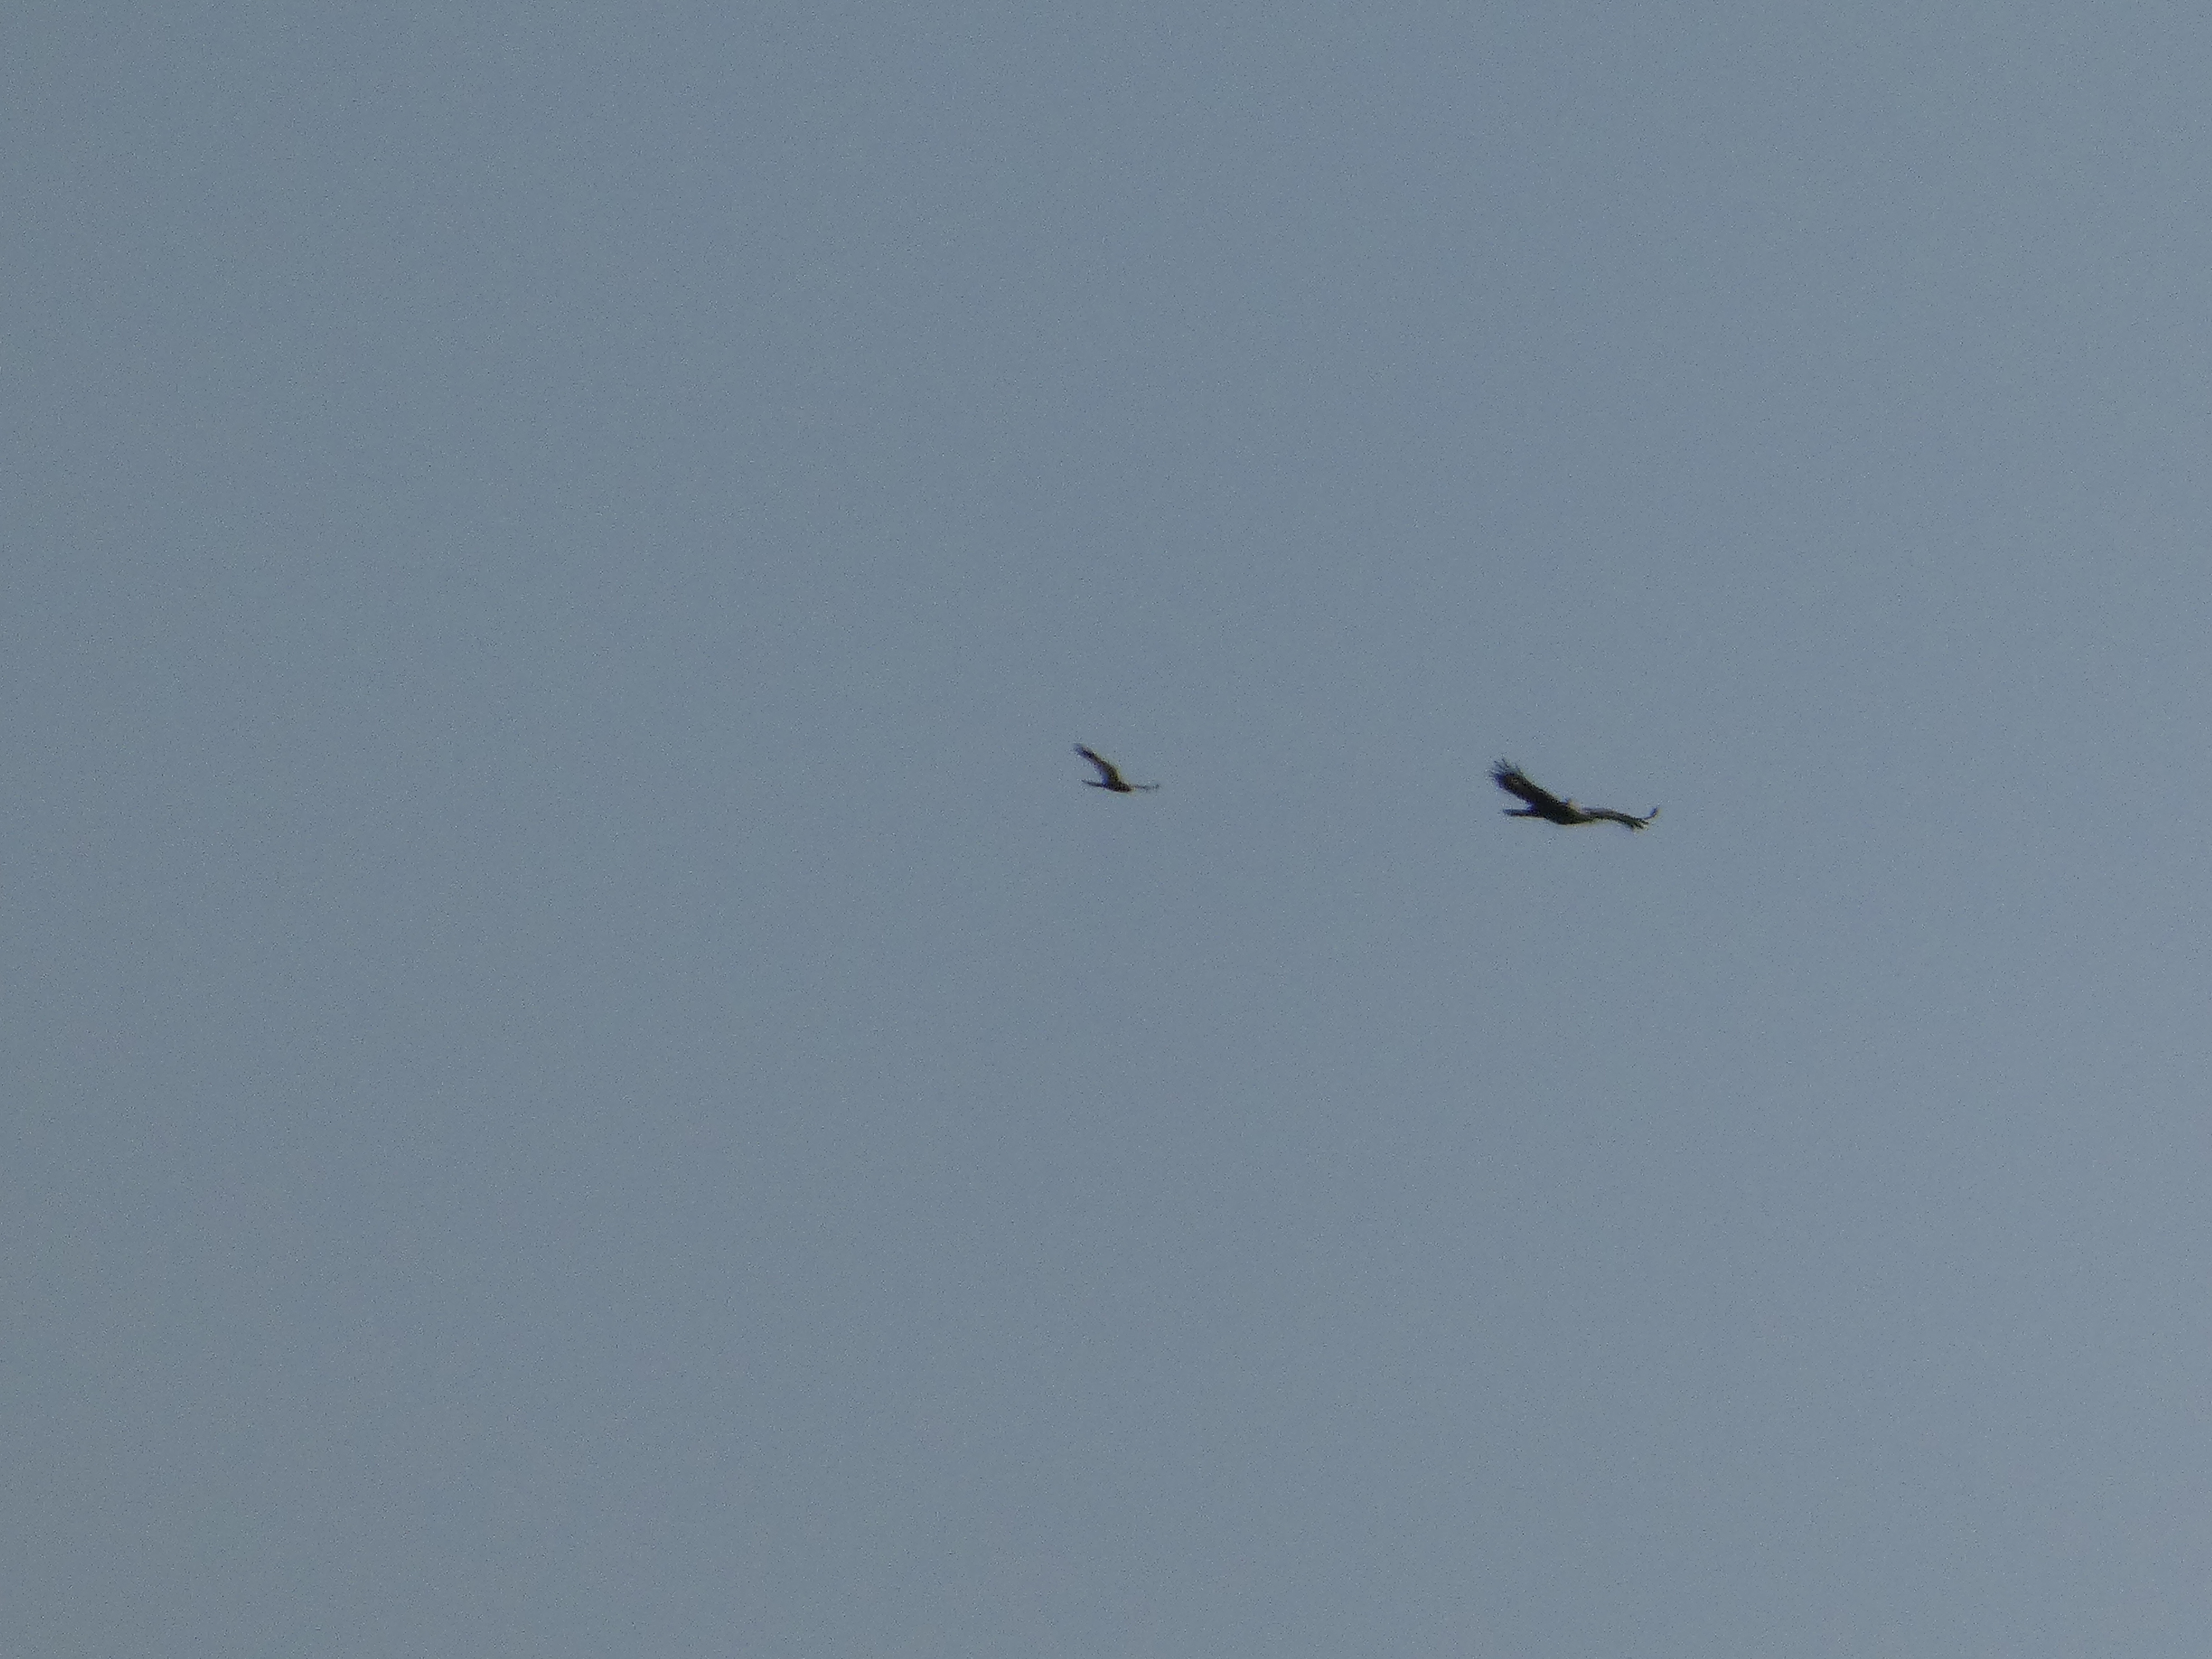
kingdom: Animalia
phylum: Chordata
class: Aves
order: Accipitriformes
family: Accipitridae
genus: Circus
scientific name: Circus aeruginosus
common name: Rørhøg
